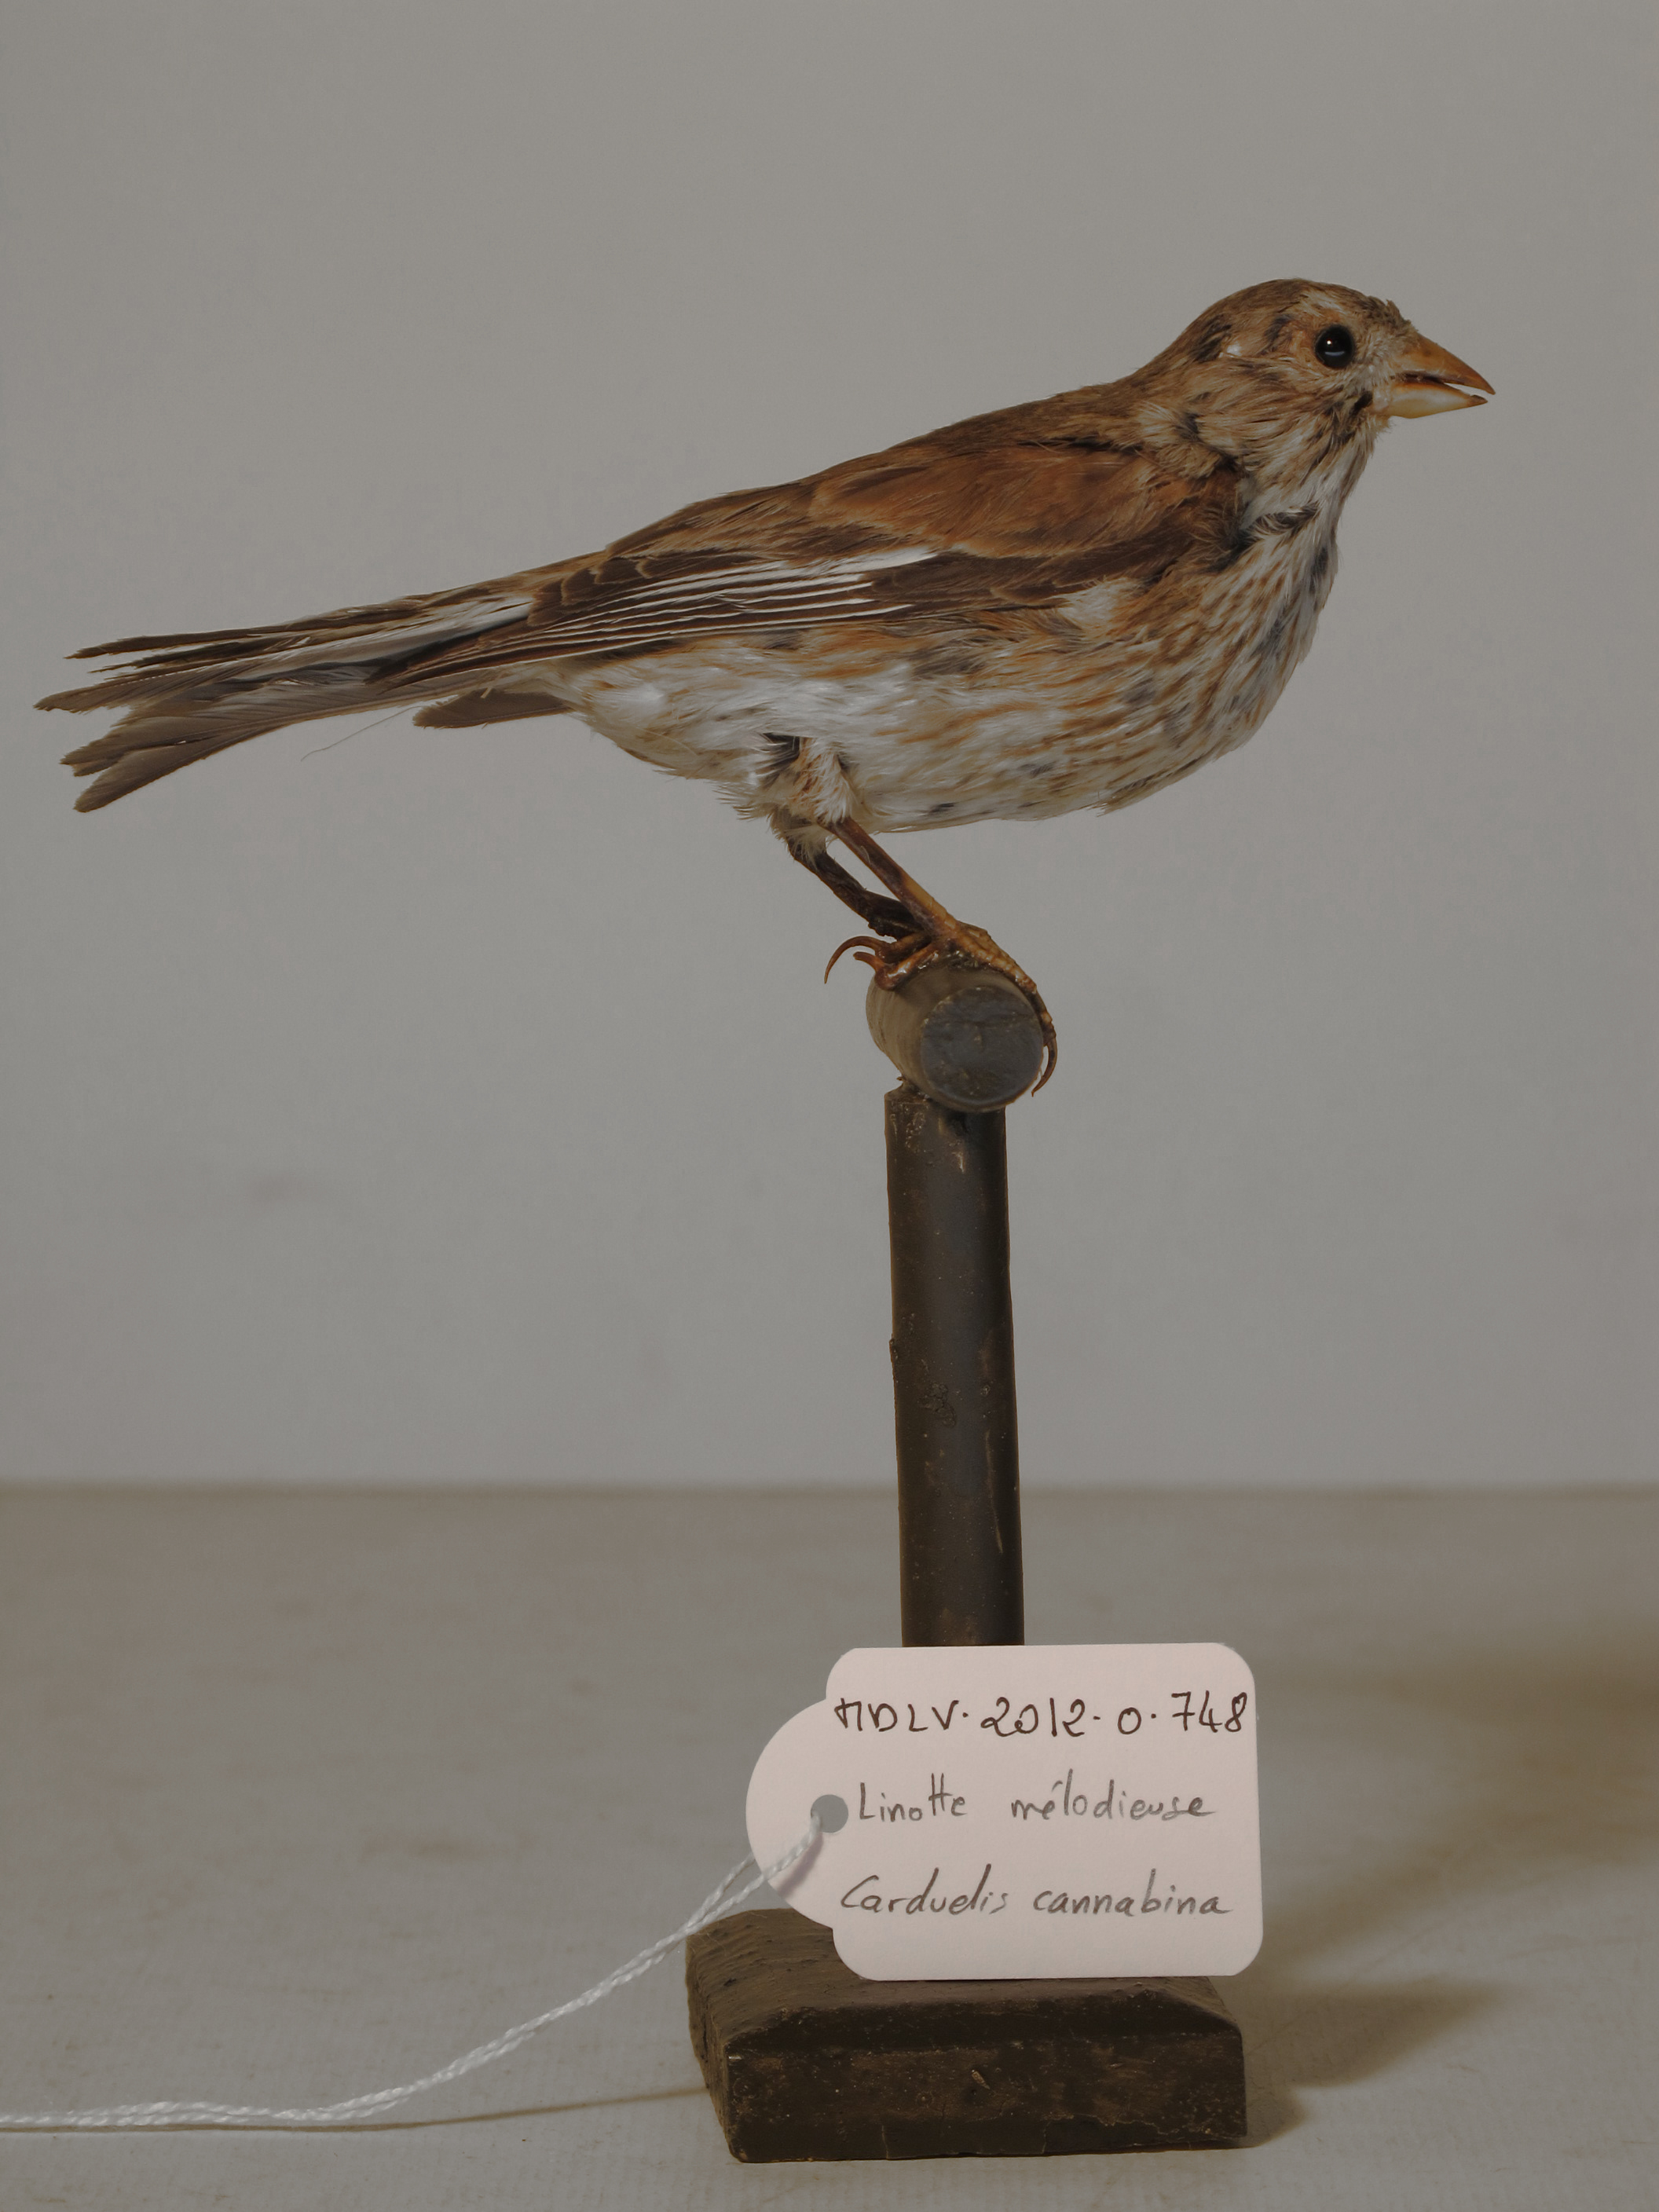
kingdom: Animalia
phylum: Chordata
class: Aves
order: Passeriformes
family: Fringillidae
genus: Linaria
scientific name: Linaria cannabina
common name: Common Linnet
